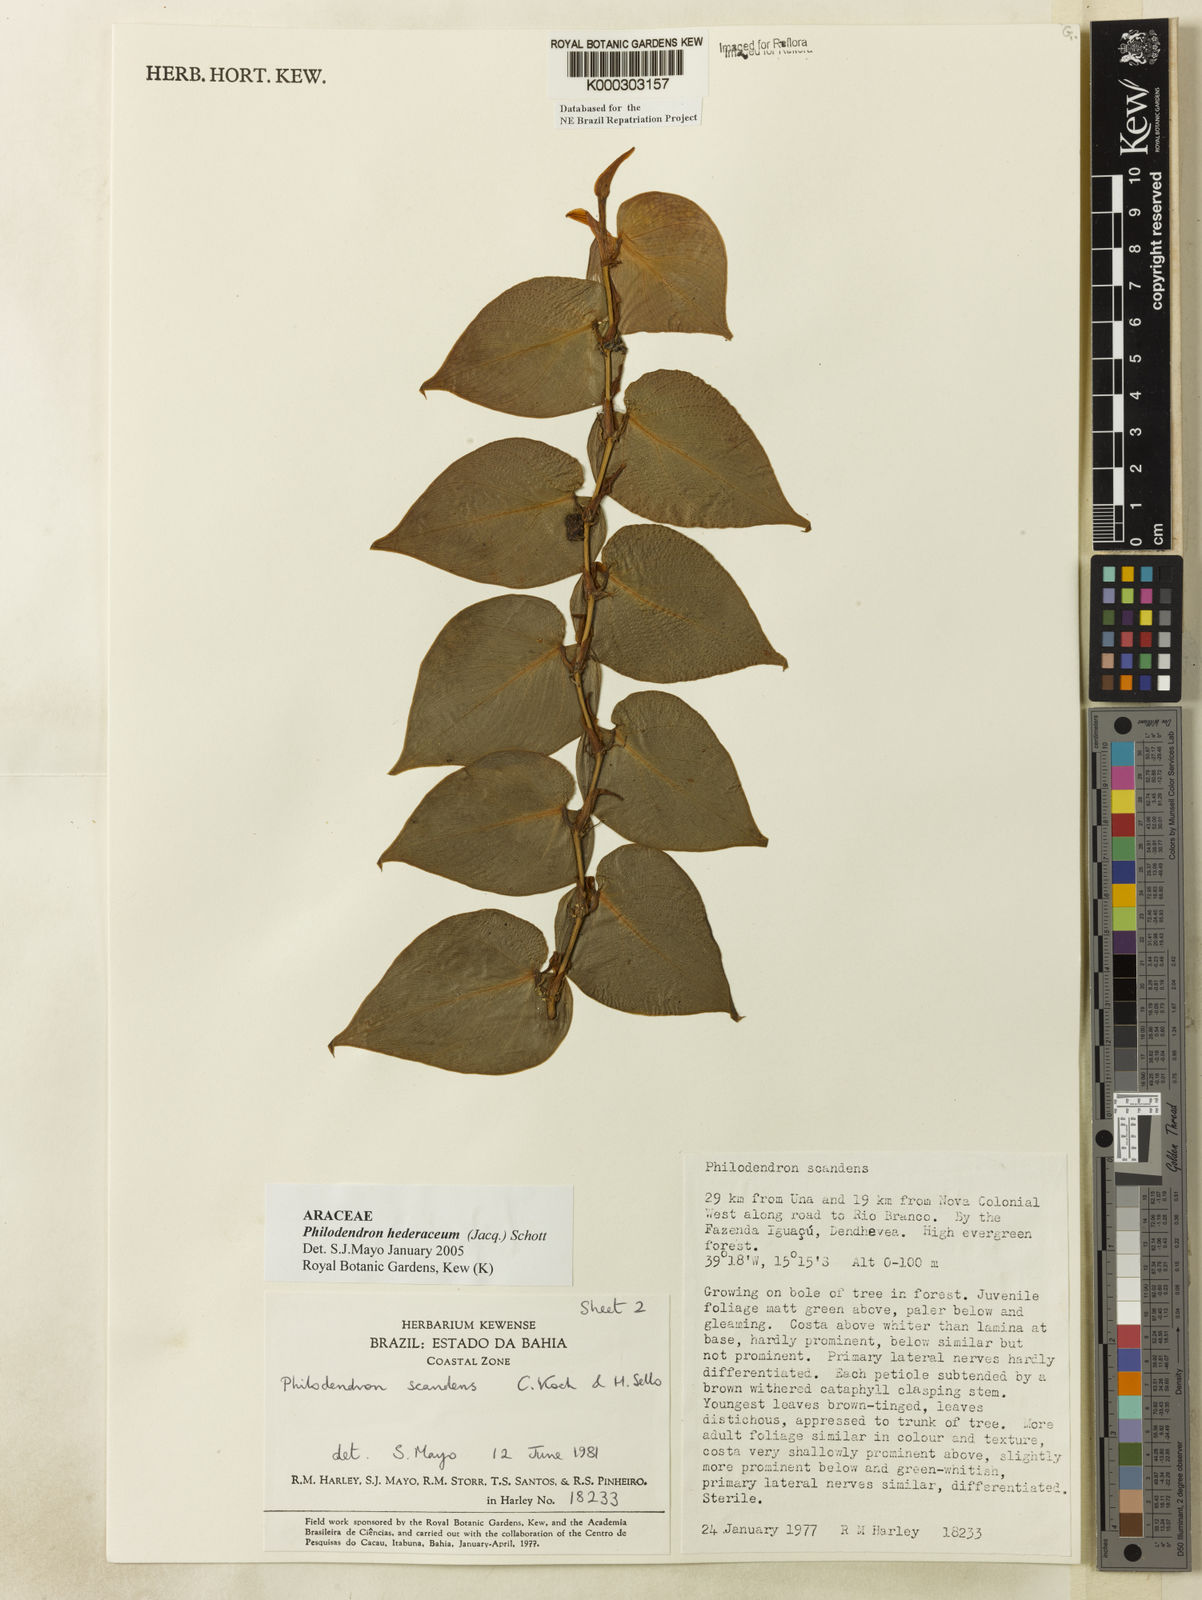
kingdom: Plantae
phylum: Tracheophyta
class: Liliopsida
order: Alismatales
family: Araceae
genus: Philodendron
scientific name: Philodendron hederaceum
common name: Vilevine
